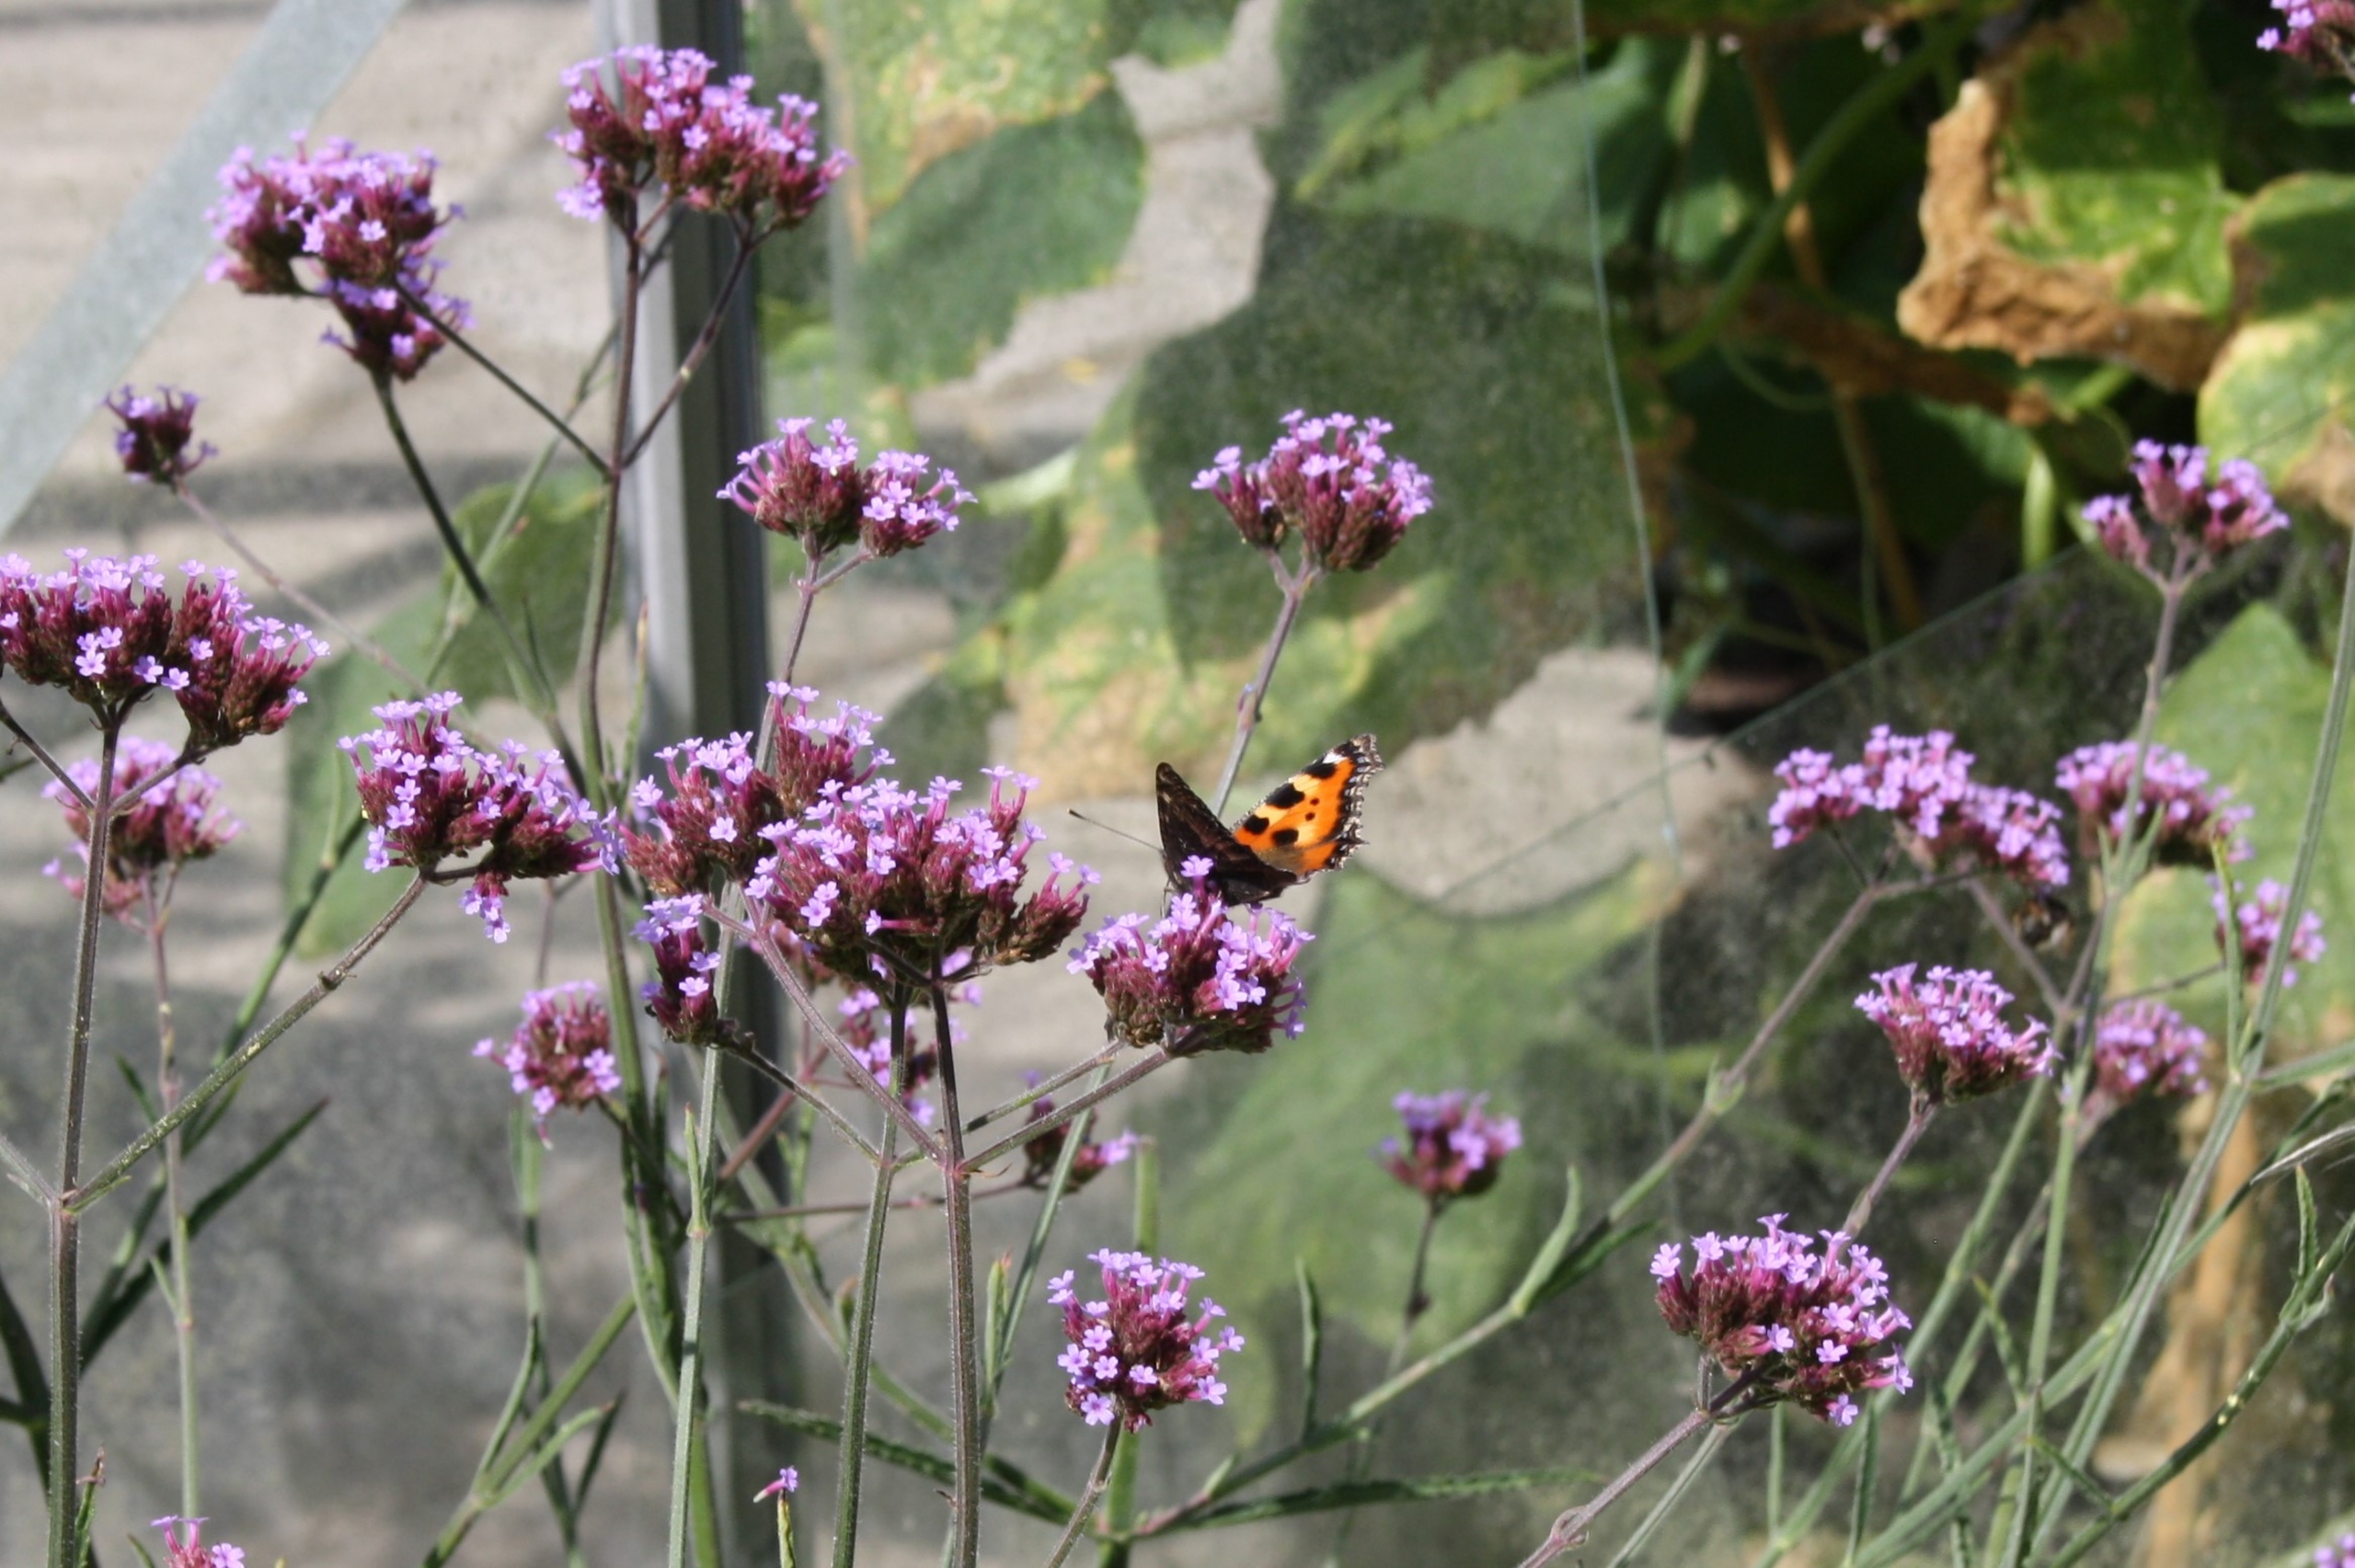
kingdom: Animalia
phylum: Arthropoda
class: Insecta
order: Lepidoptera
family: Nymphalidae
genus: Aglais
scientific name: Aglais urticae
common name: Nældens takvinge
